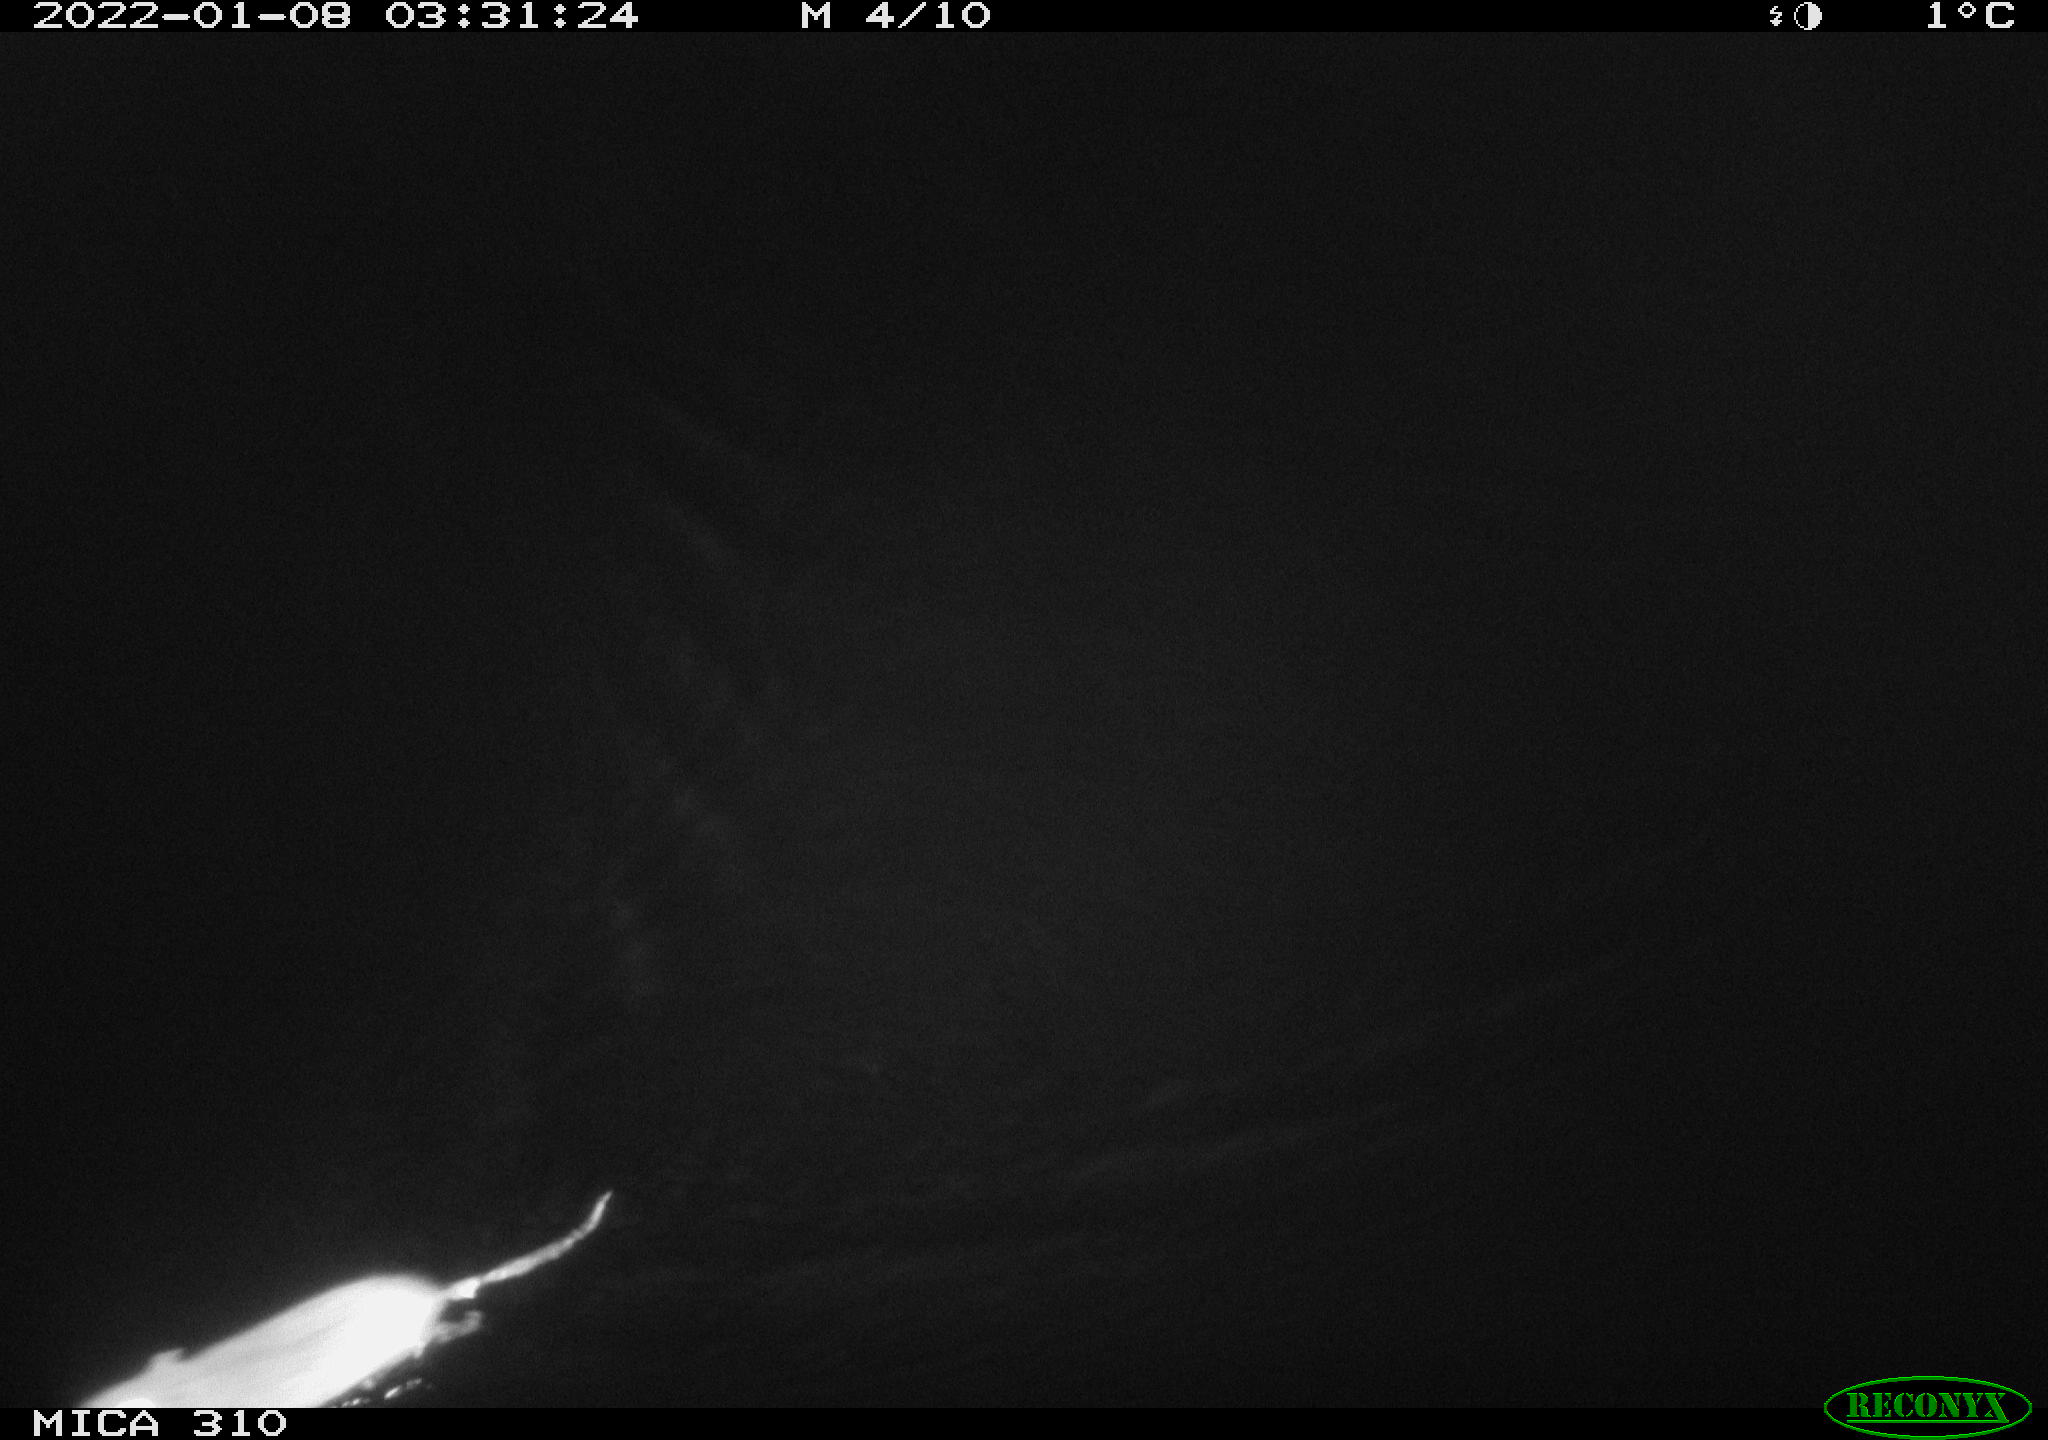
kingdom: Animalia
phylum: Chordata
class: Mammalia
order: Rodentia
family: Muridae
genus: Rattus
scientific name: Rattus norvegicus
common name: Brown rat
